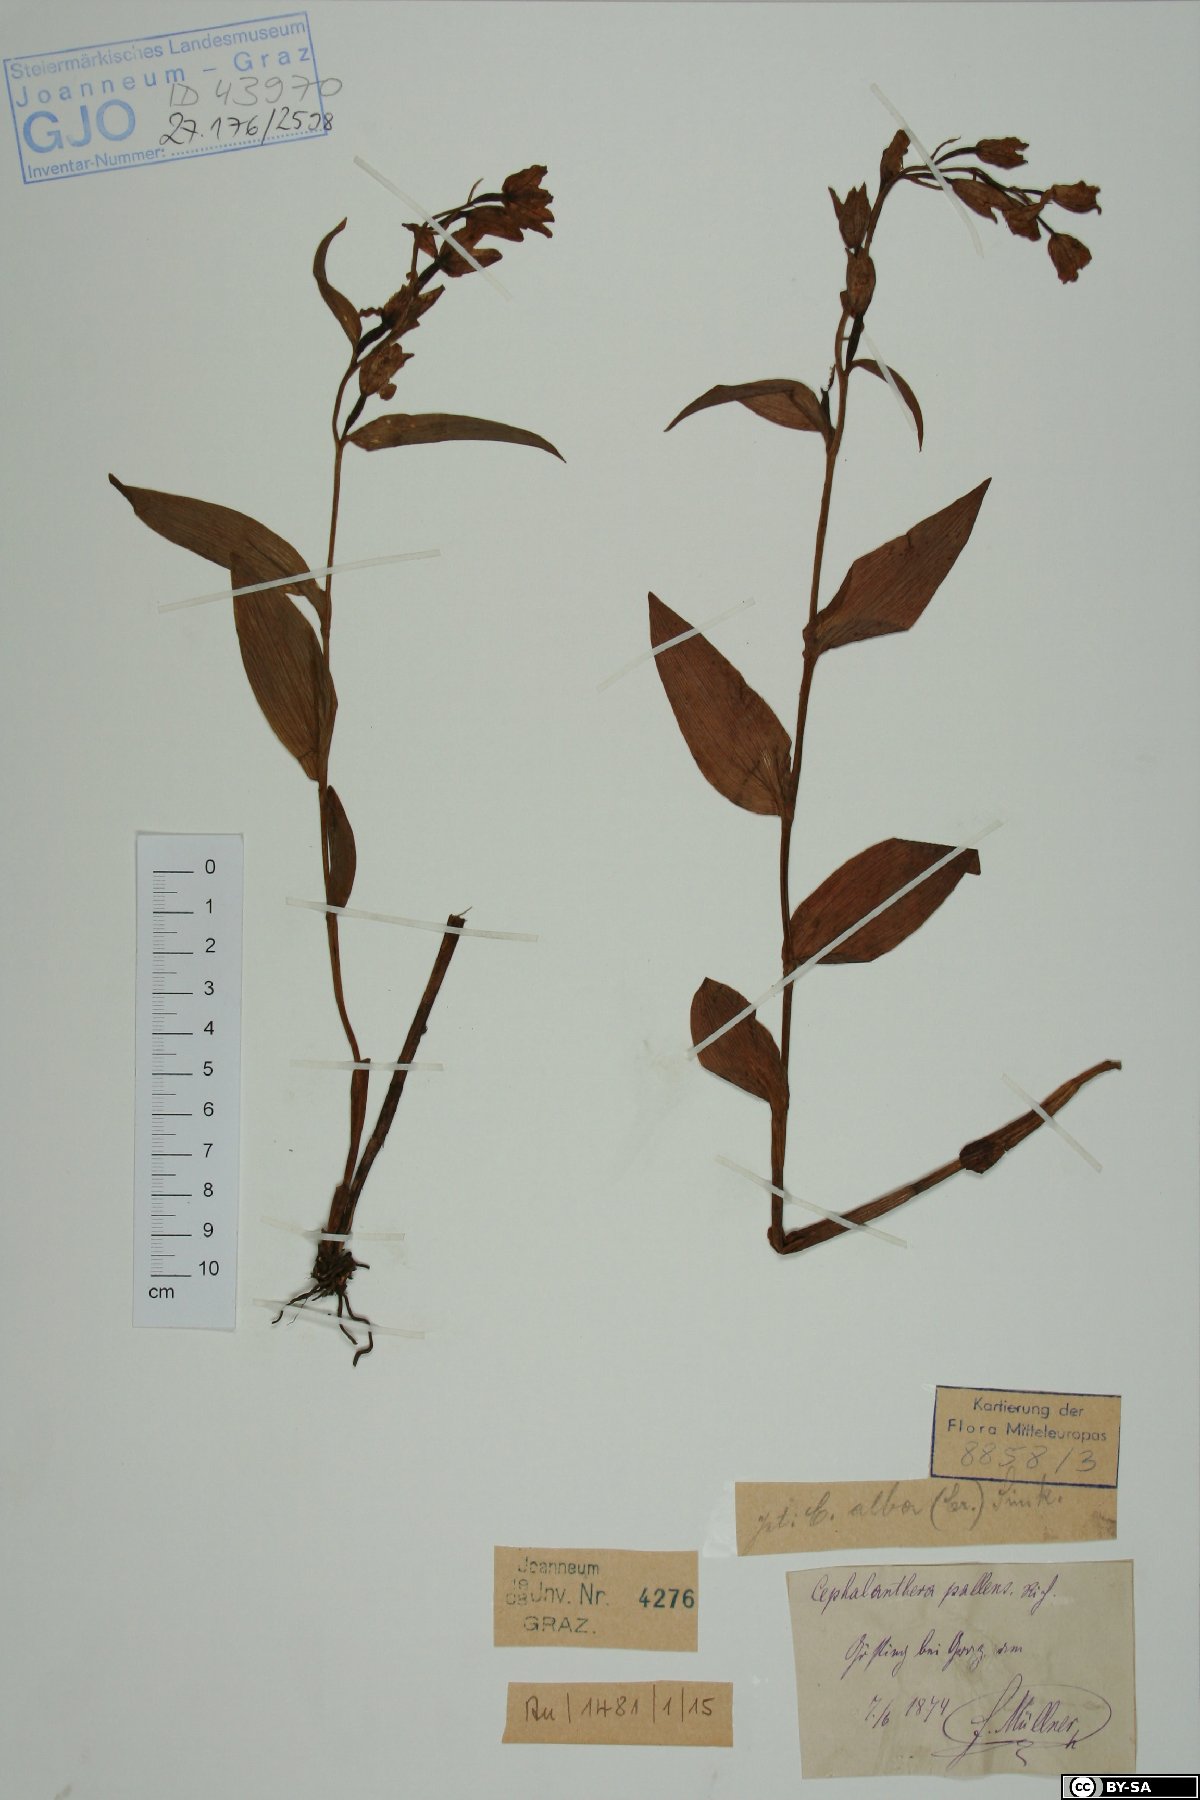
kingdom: Plantae
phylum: Tracheophyta
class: Liliopsida
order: Asparagales
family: Orchidaceae
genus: Cephalanthera
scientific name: Cephalanthera longifolia
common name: Narrow-leaved helleborine
